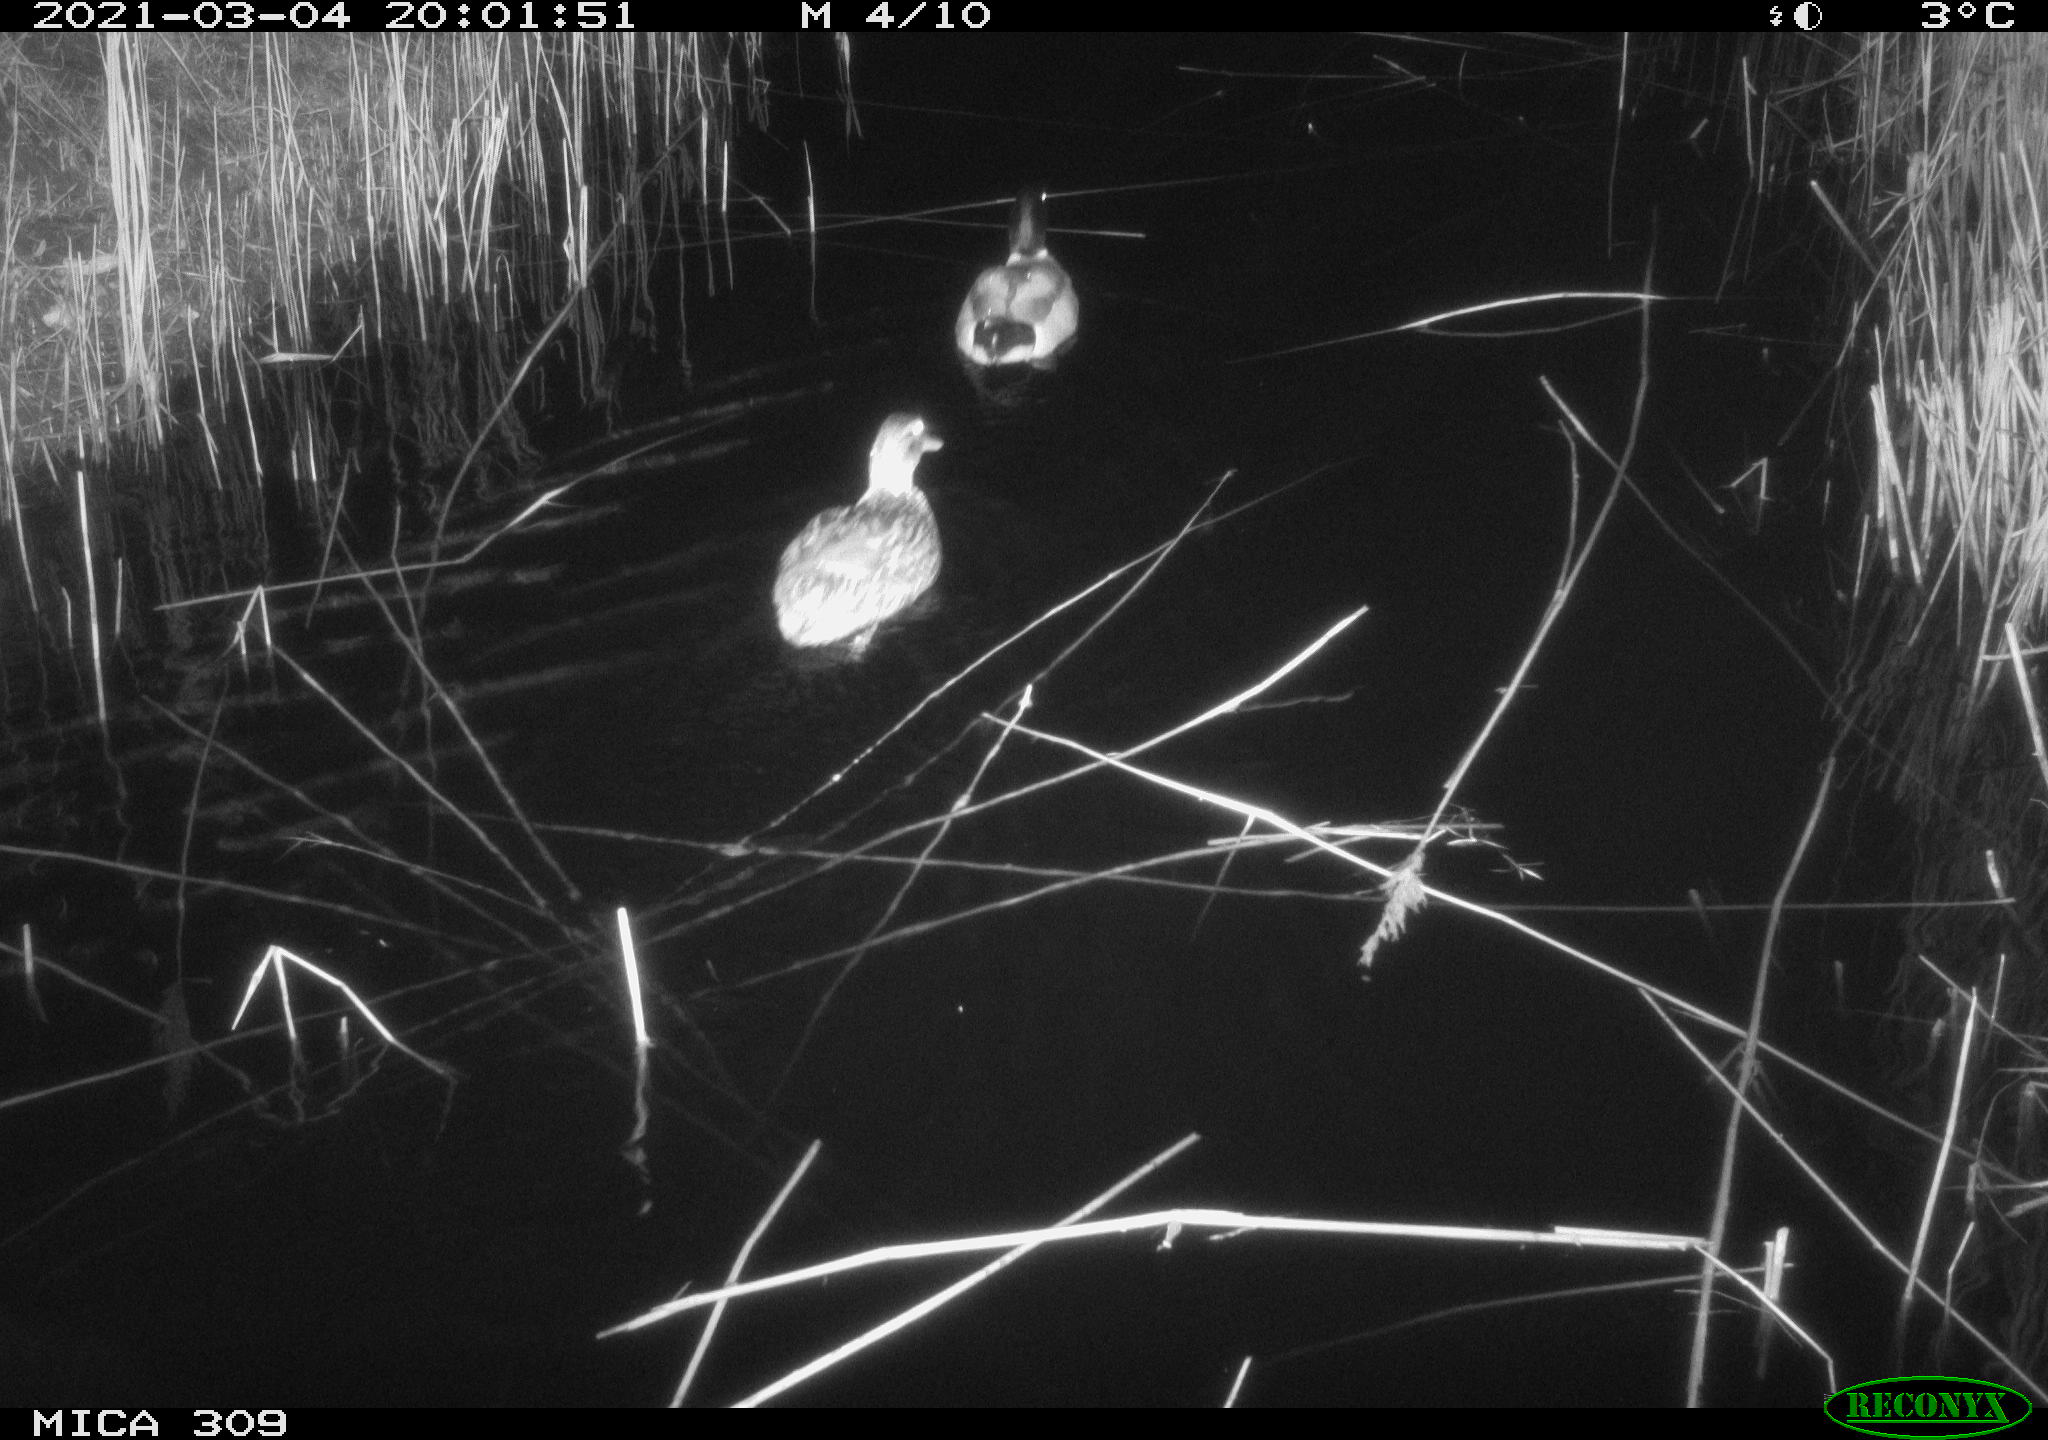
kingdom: Animalia
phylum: Chordata
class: Aves
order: Anseriformes
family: Anatidae
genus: Anas
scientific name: Anas platyrhynchos
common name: Mallard
